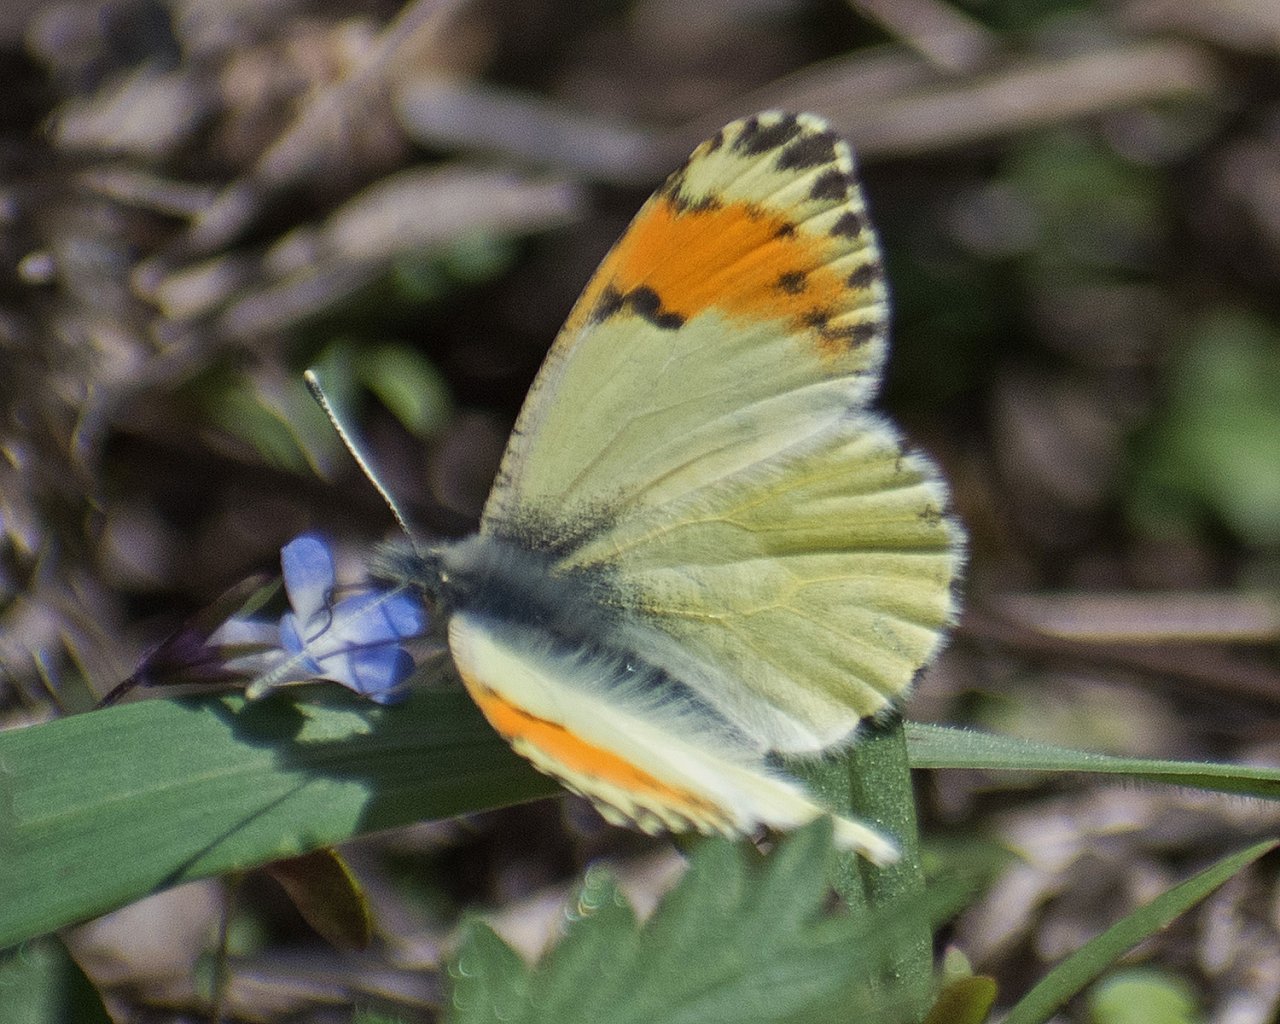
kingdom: Animalia
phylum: Arthropoda
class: Insecta
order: Lepidoptera
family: Pieridae
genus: Anthocharis
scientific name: Anthocharis sara
